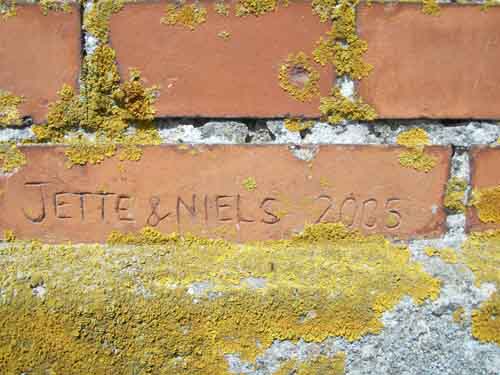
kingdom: Fungi
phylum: Ascomycota
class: Lecanoromycetes
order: Teloschistales
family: Teloschistaceae
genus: Xanthoria
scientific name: Xanthoria parietina
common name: almindelig væggelav
